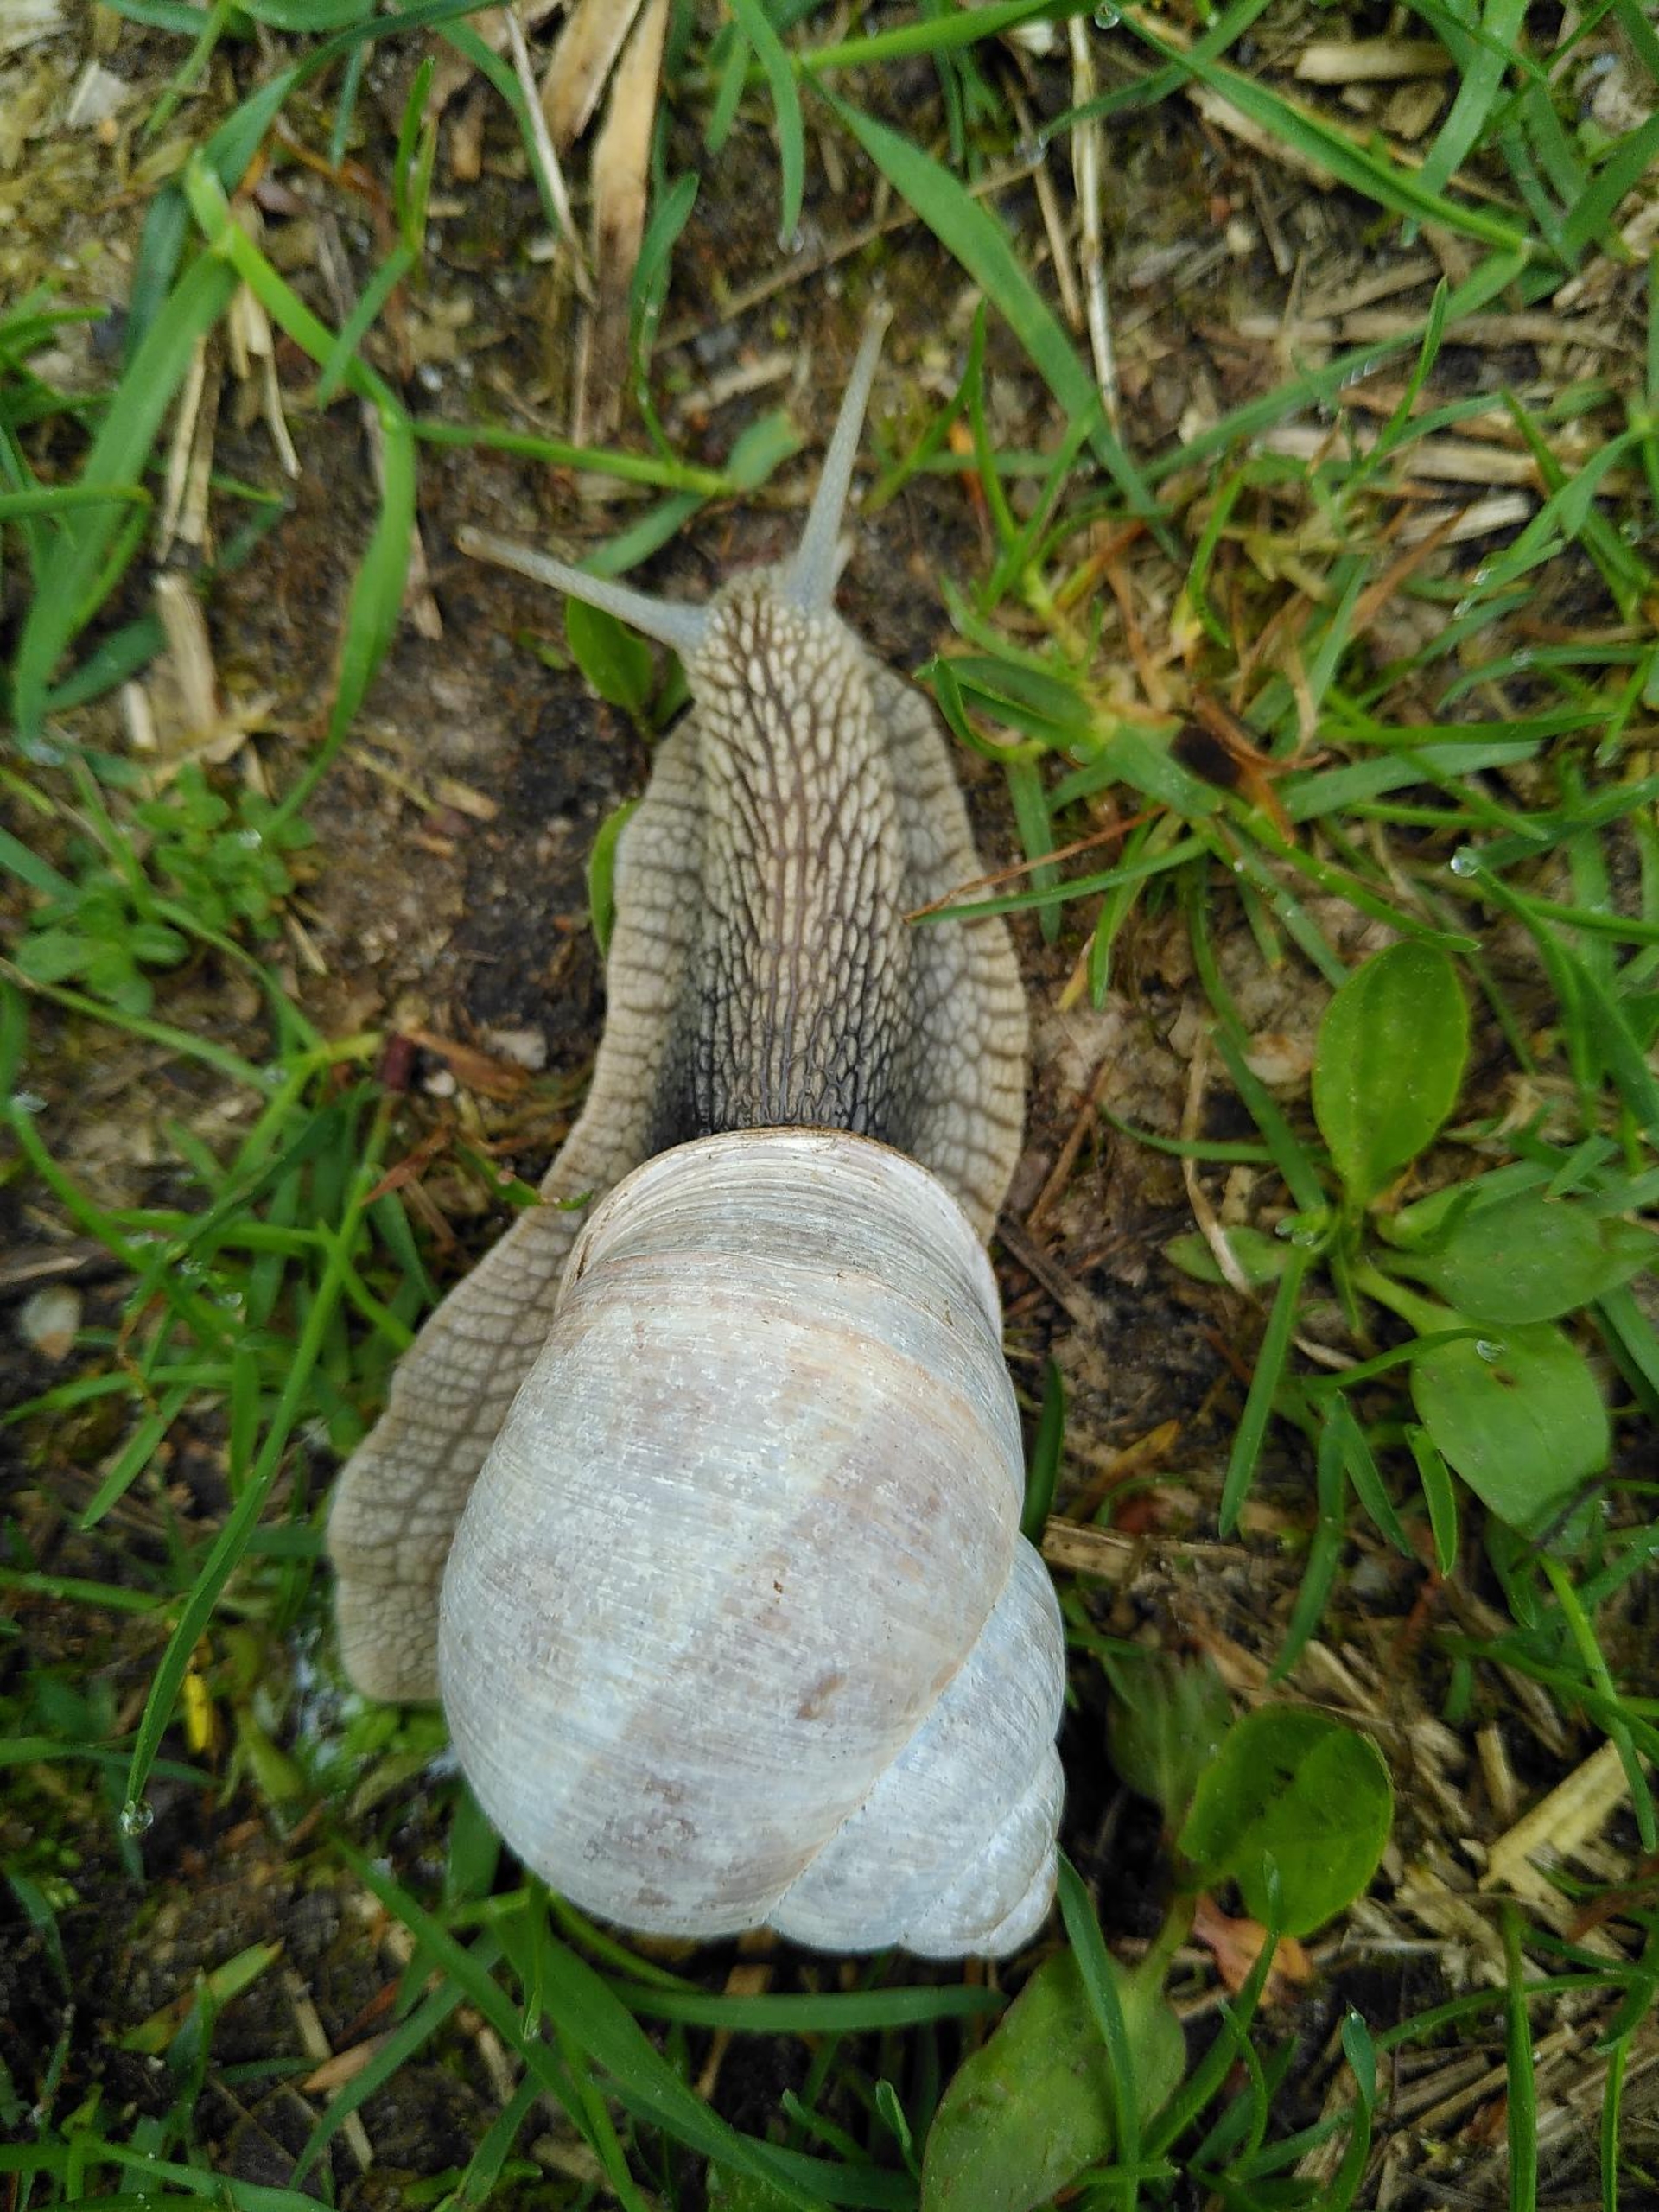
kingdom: Animalia
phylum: Mollusca
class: Gastropoda
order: Stylommatophora
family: Helicidae
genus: Helix
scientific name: Helix pomatia
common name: Vinbjergsnegl
